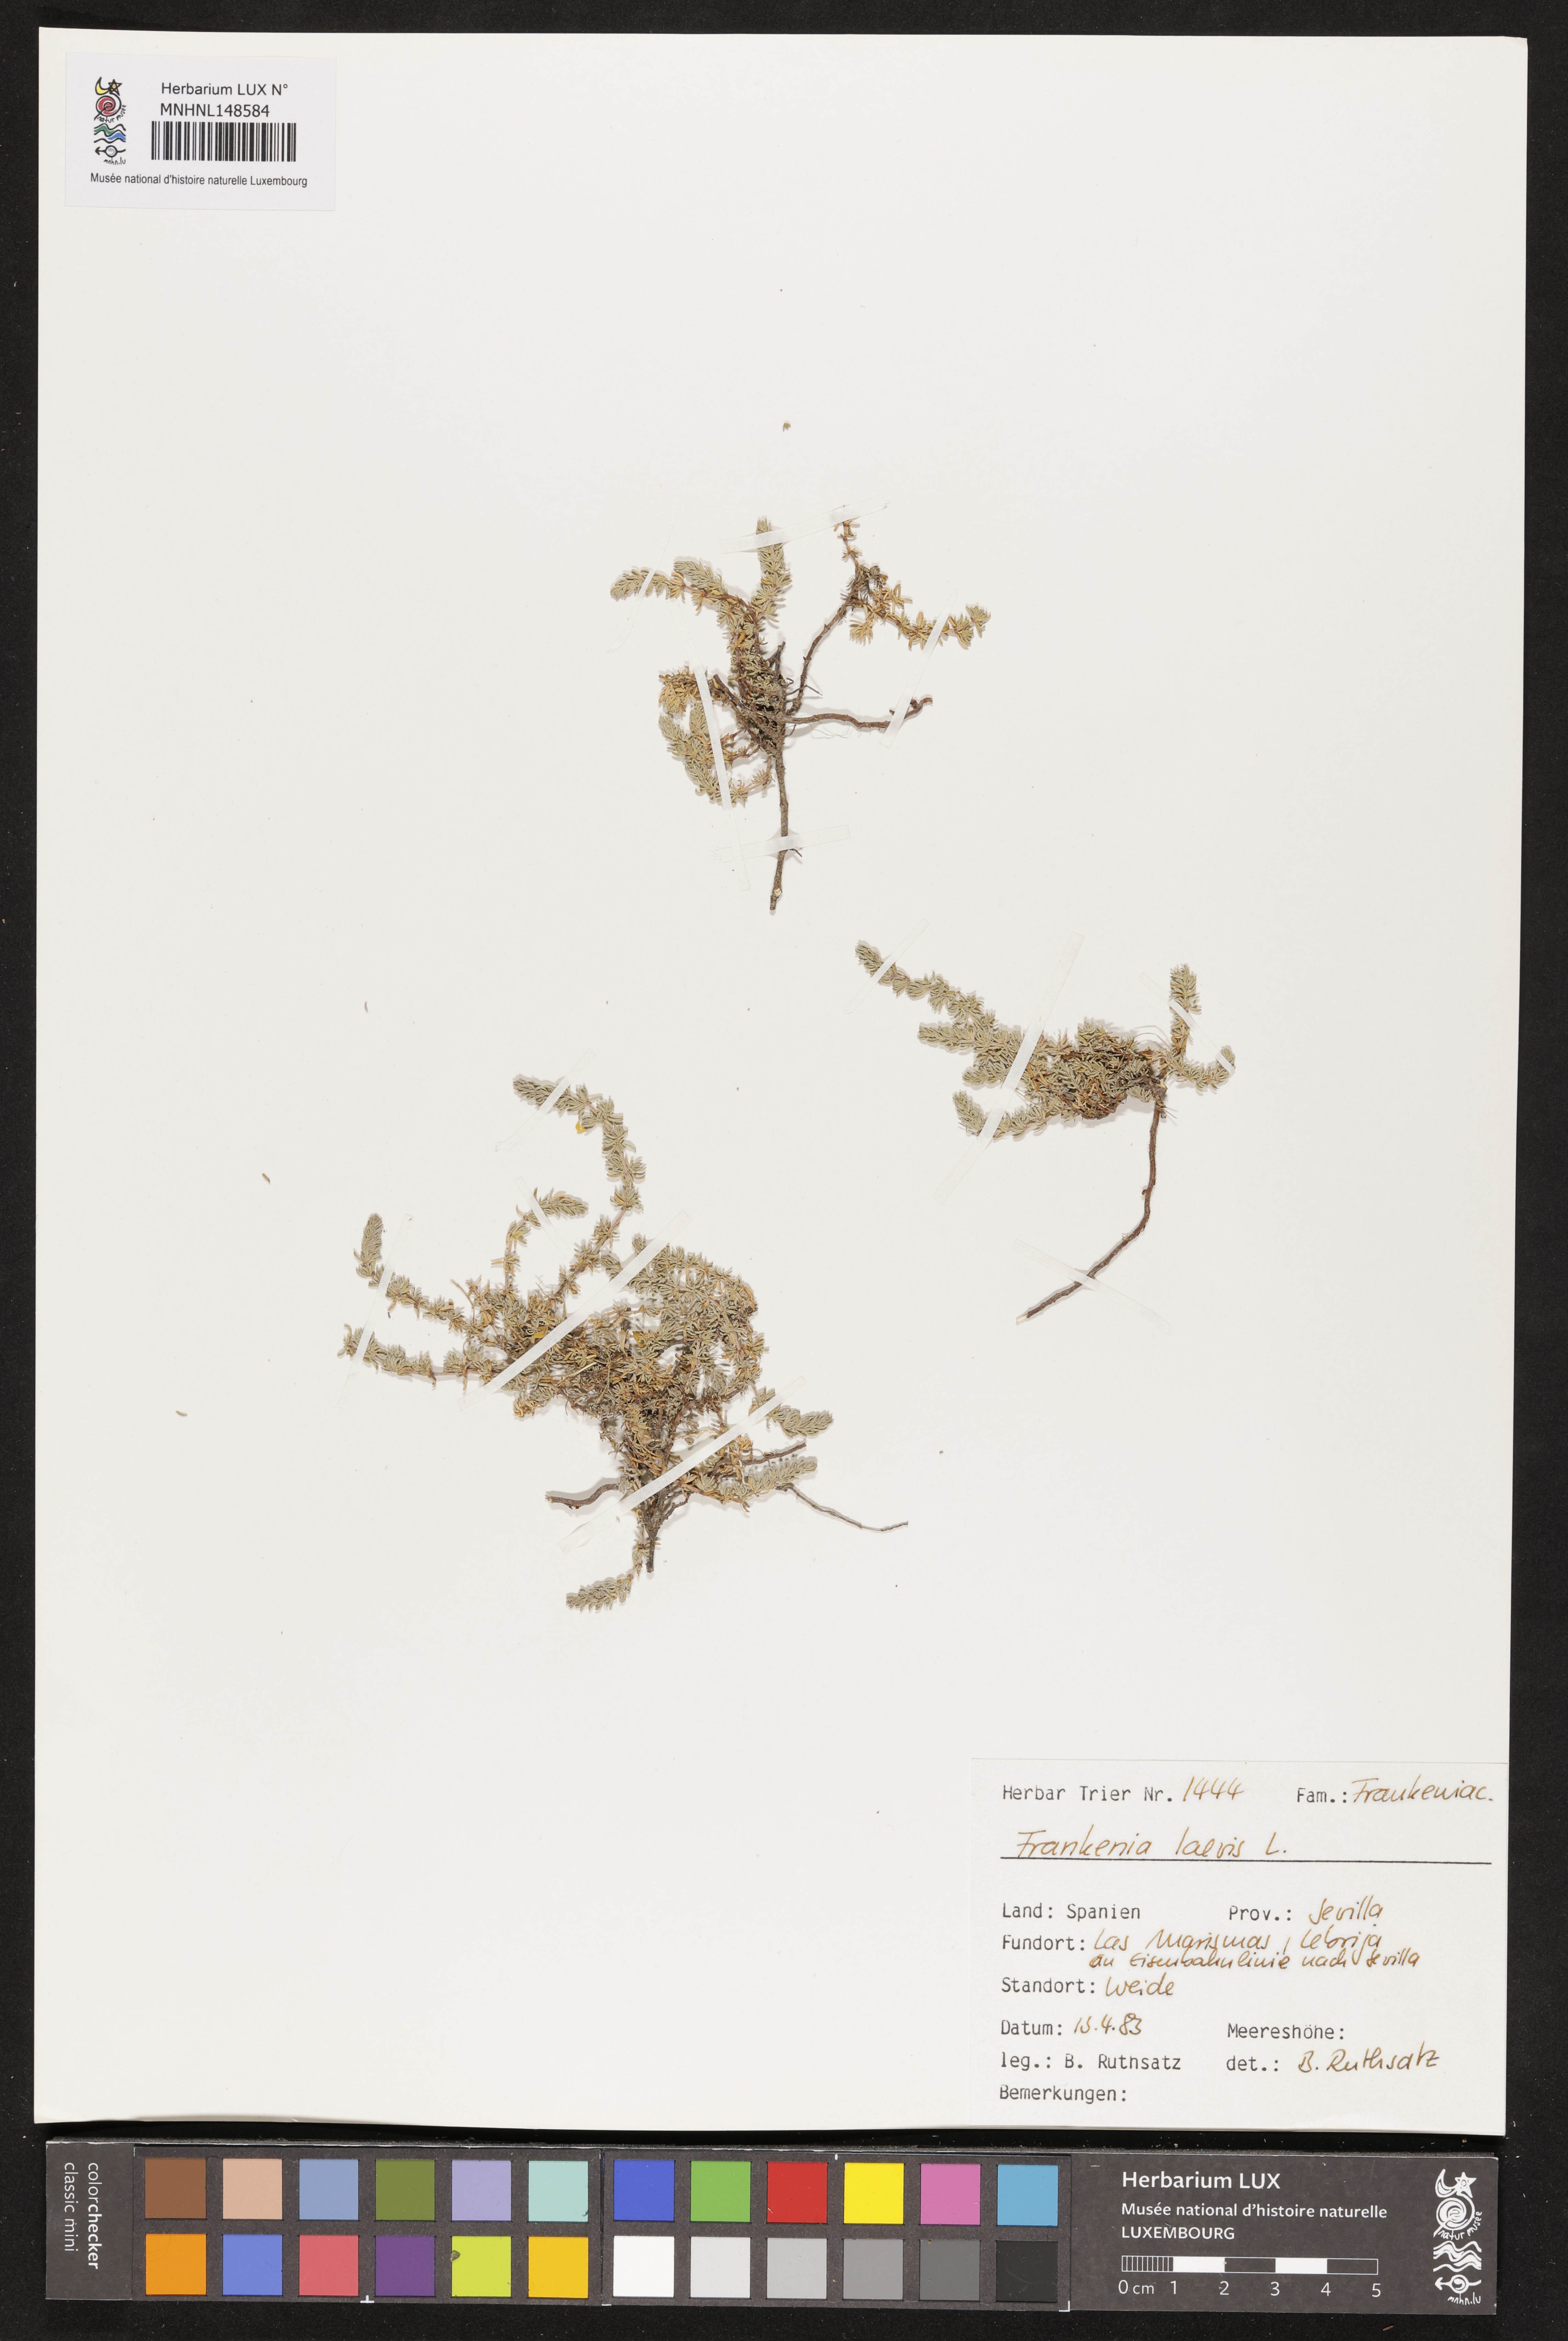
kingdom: Plantae
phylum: Tracheophyta
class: Magnoliopsida
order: Caryophyllales
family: Frankeniaceae
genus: Frankenia
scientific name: Frankenia laevis
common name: Sea-heath
